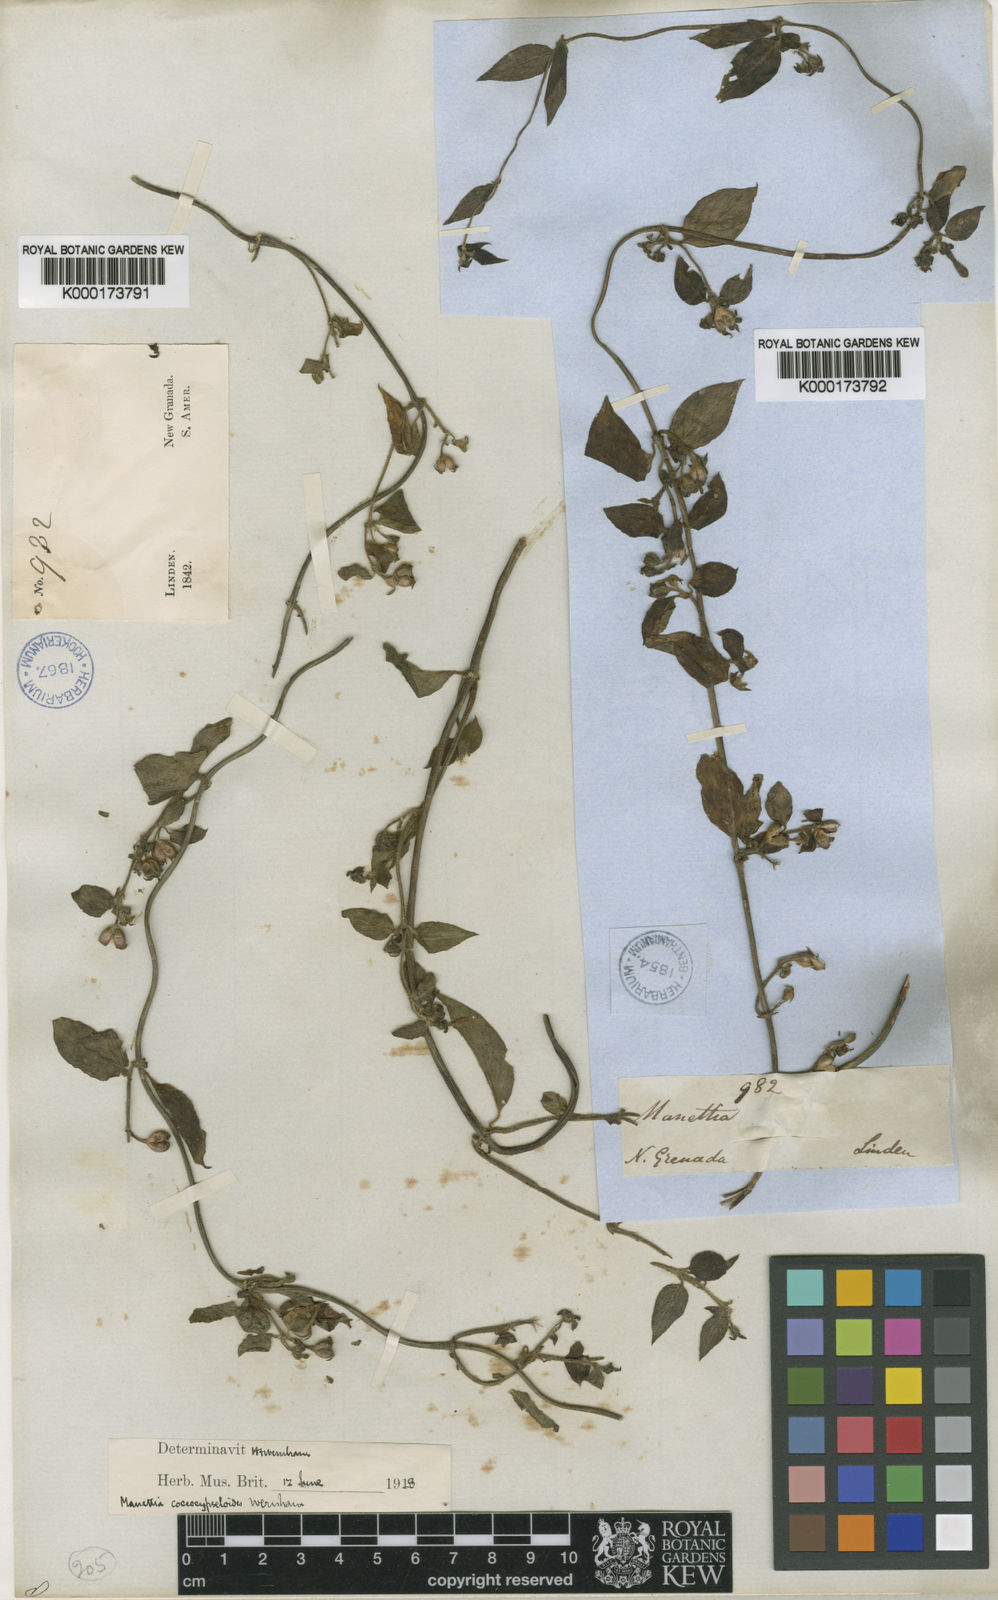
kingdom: Plantae
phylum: Tracheophyta
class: Magnoliopsida
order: Gentianales
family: Rubiaceae
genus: Manettia
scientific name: Manettia coccocypseloides
